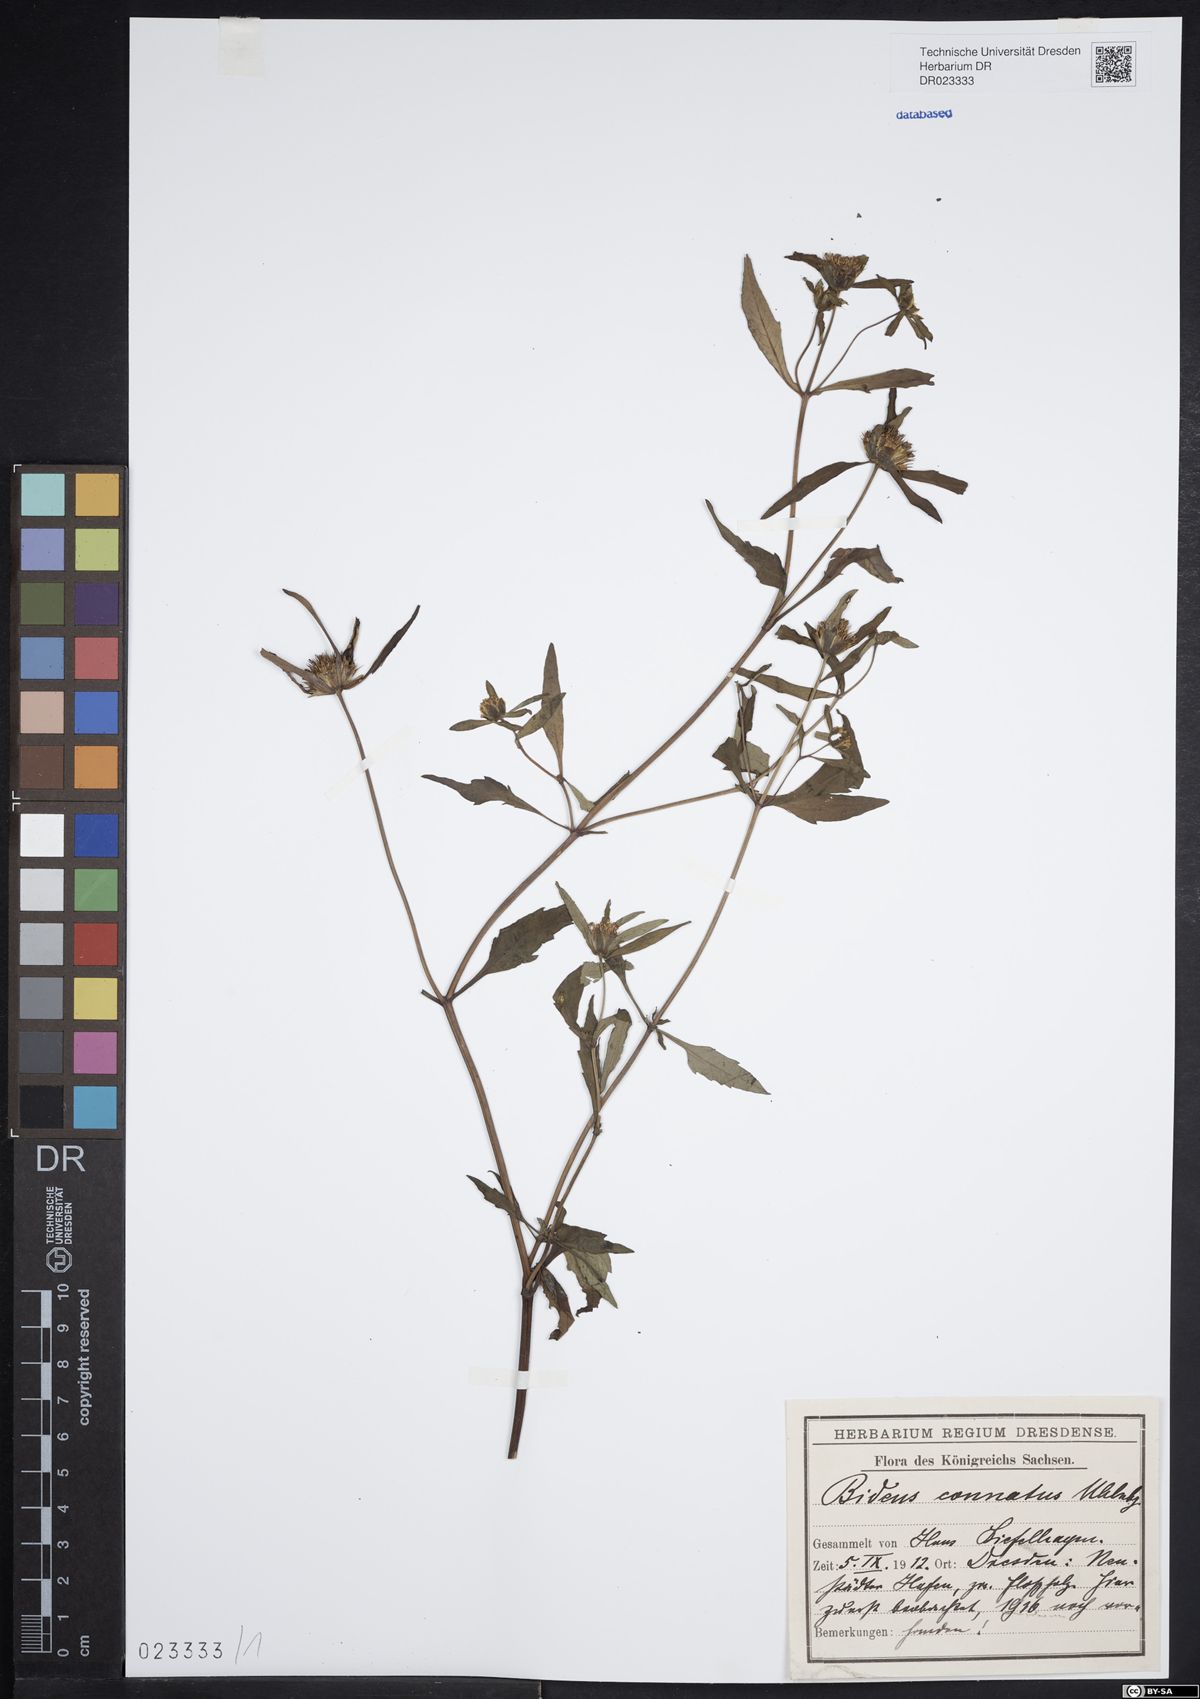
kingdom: Plantae
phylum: Tracheophyta
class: Magnoliopsida
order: Asterales
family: Asteraceae
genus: Bidens
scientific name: Bidens connata
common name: London bur-marigold
